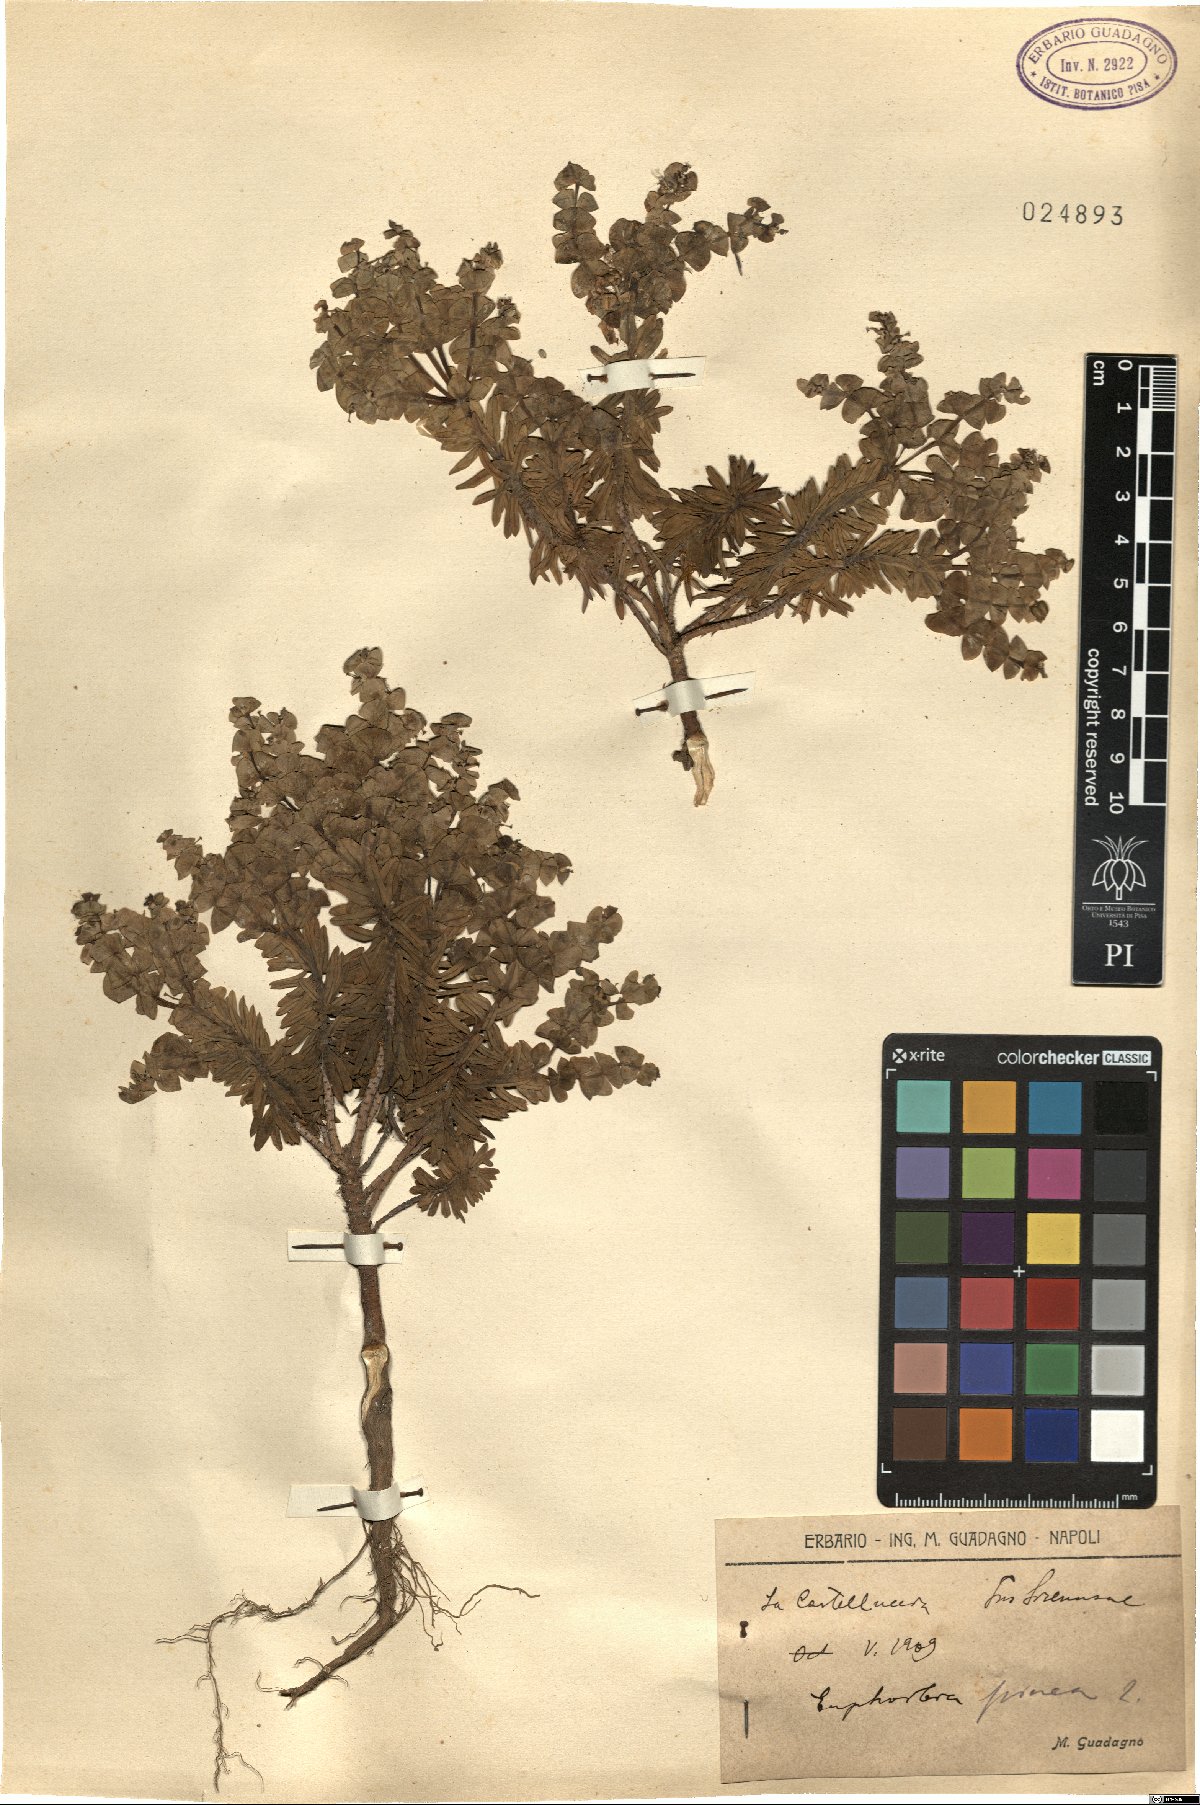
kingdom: Plantae
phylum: Tracheophyta
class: Magnoliopsida
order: Malpighiales
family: Euphorbiaceae
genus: Euphorbia
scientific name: Euphorbia segetalis
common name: Corn spurge
